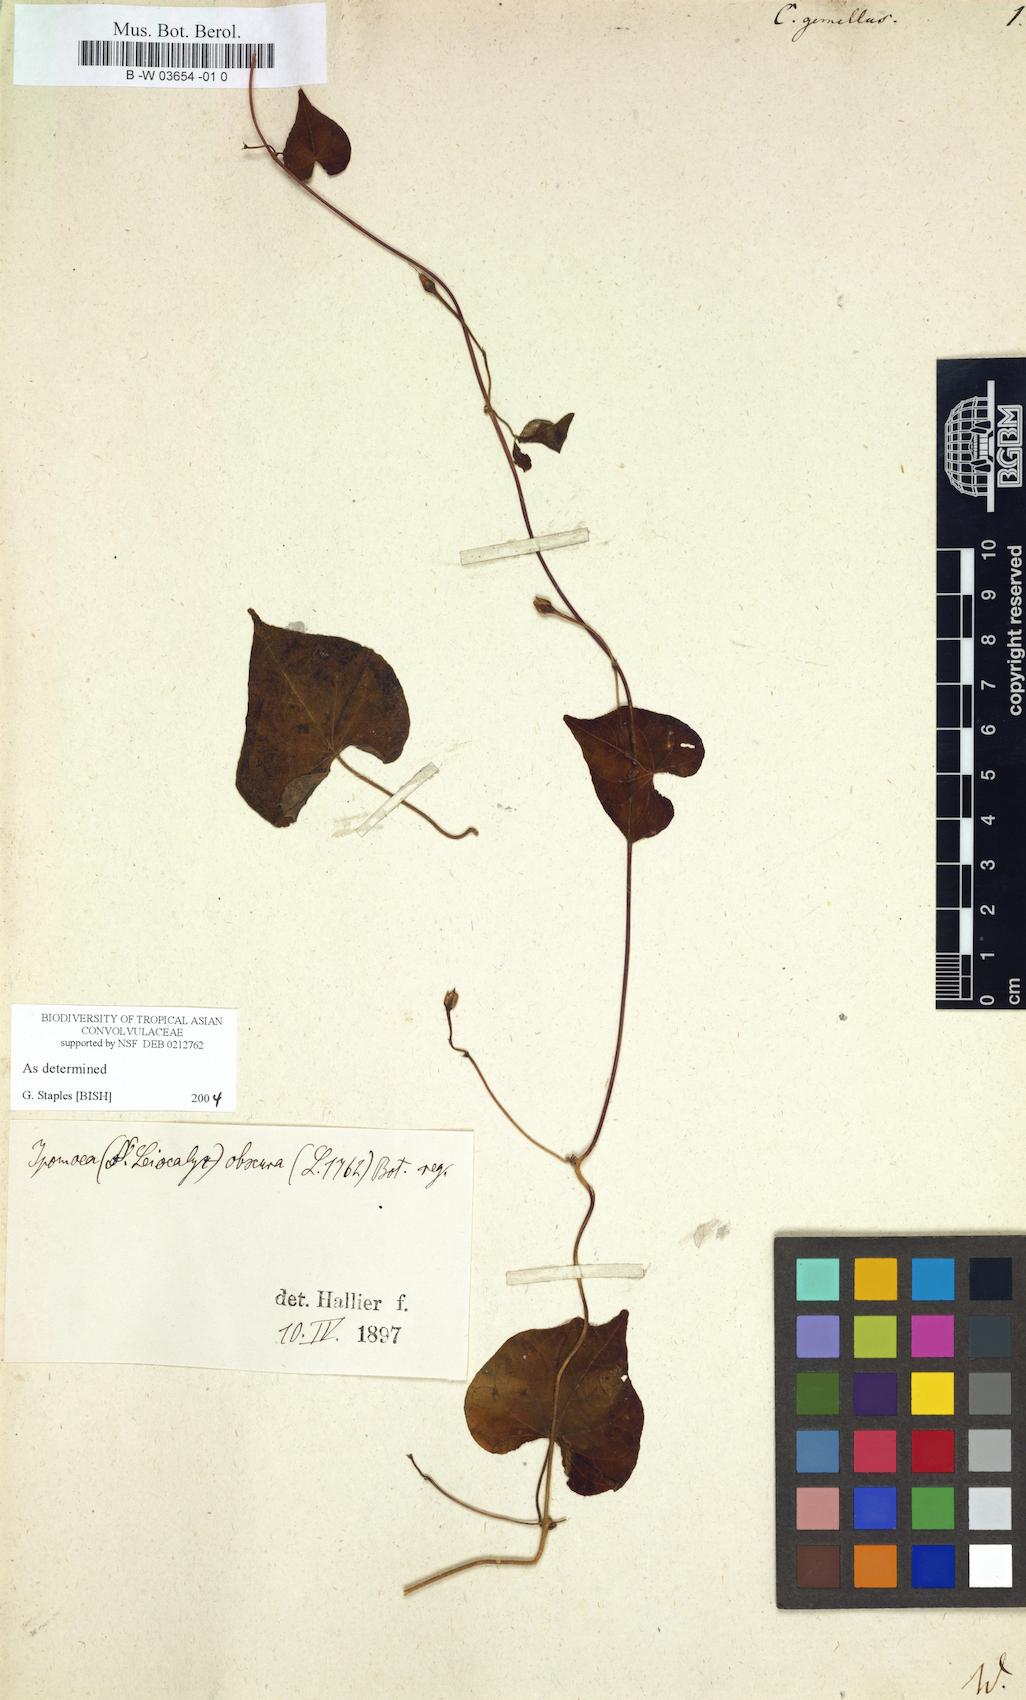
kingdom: Plantae
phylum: Tracheophyta
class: Magnoliopsida
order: Solanales
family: Convolvulaceae
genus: Merremia
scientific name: Merremia gemella
